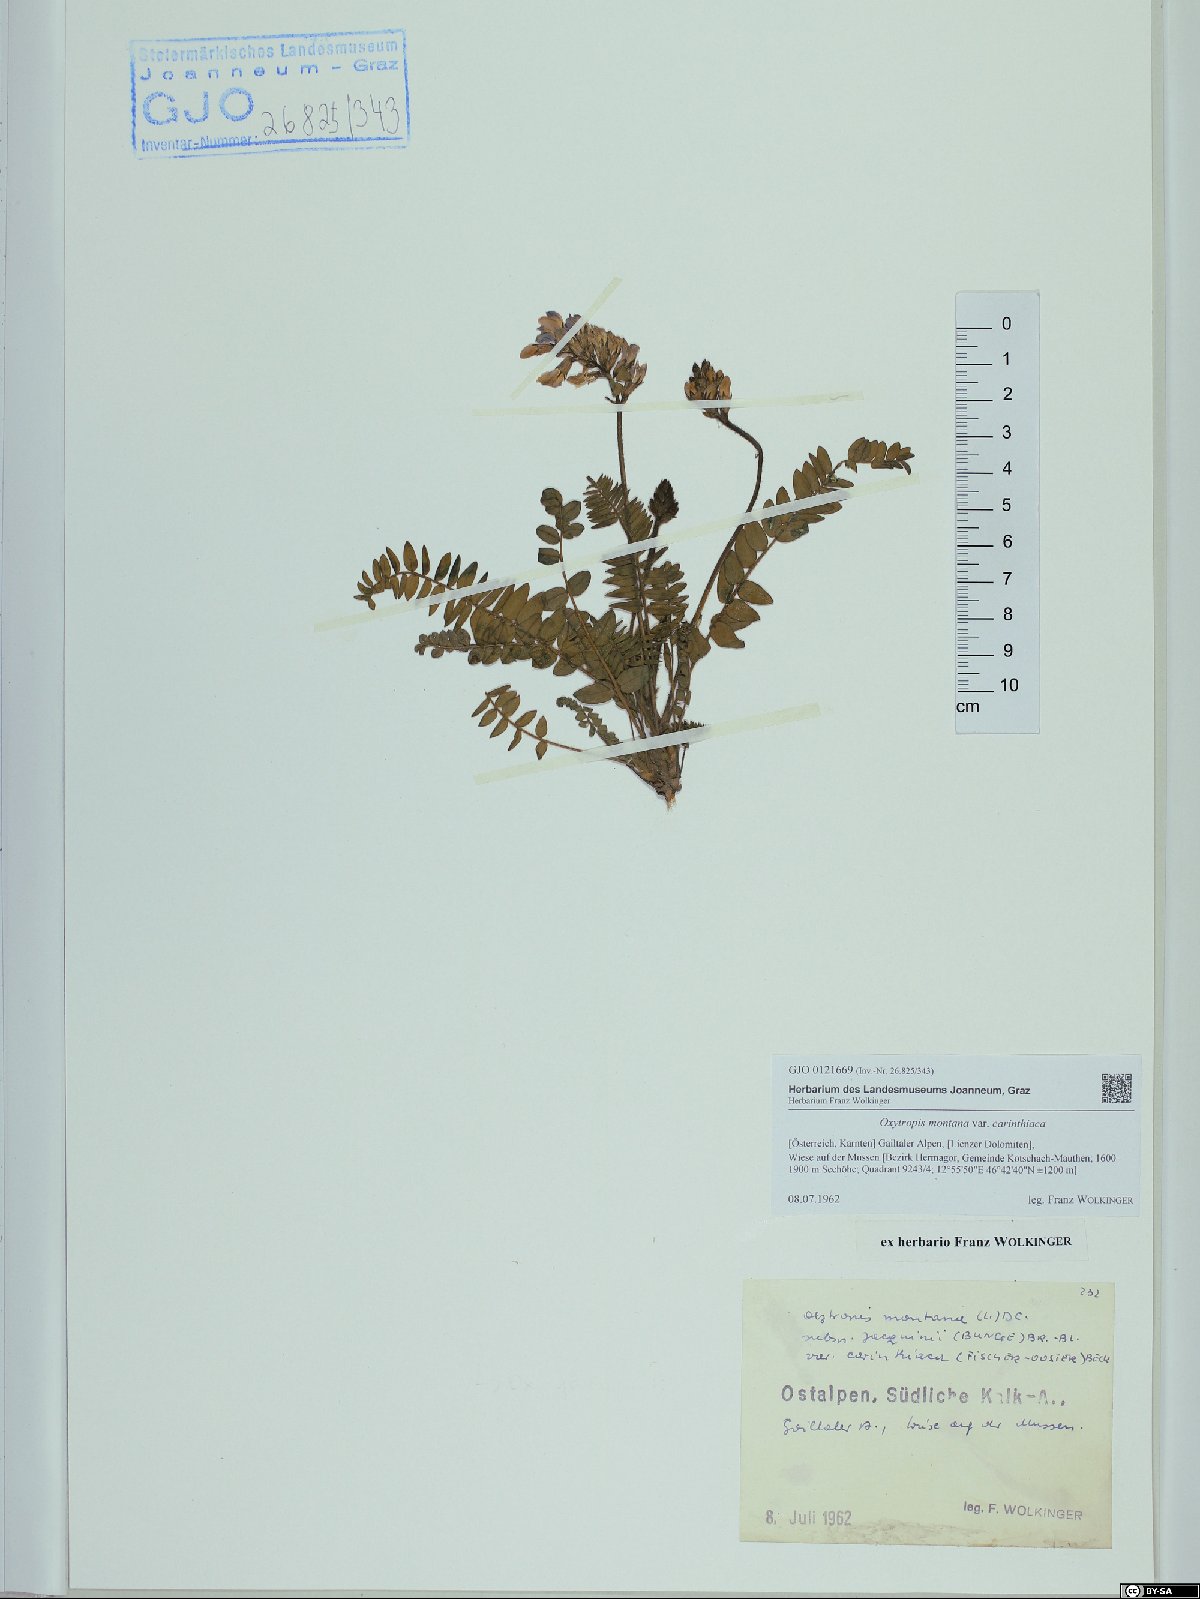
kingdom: Plantae
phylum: Tracheophyta
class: Magnoliopsida
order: Fabales
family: Fabaceae
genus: Oxytropis
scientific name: Oxytropis montana
